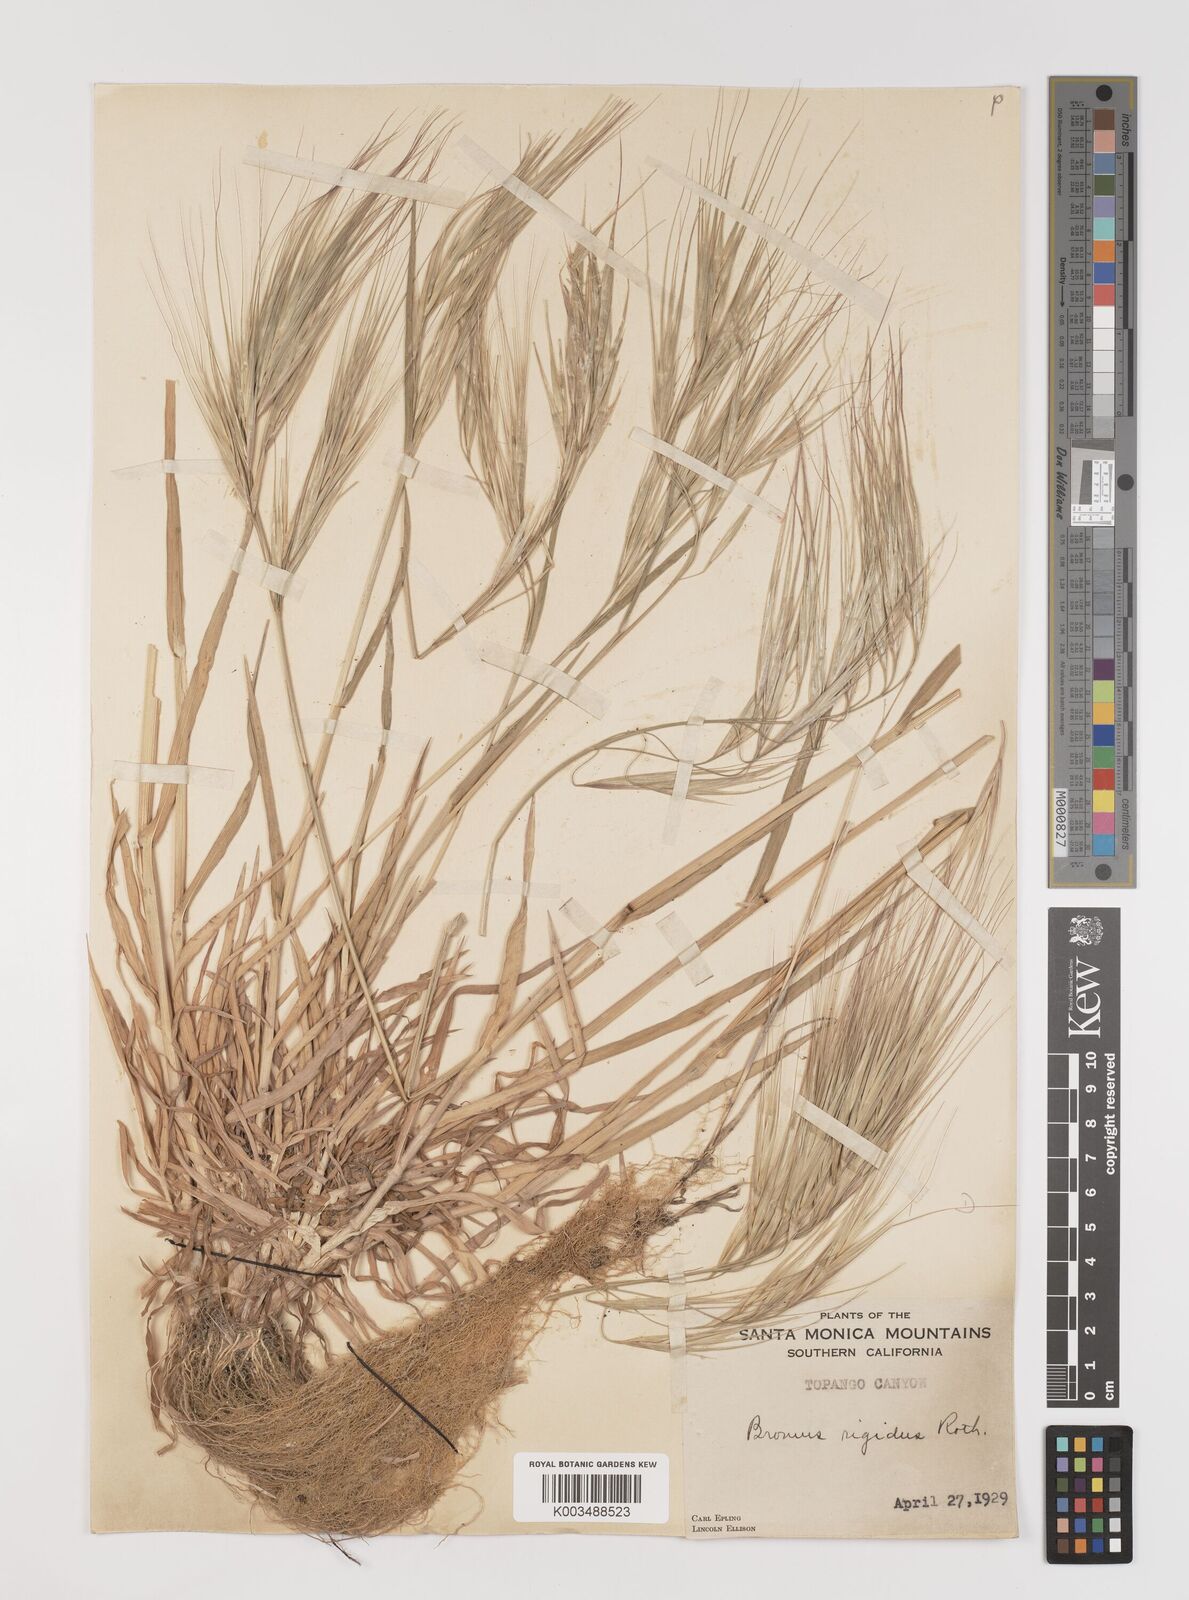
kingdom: Plantae
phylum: Tracheophyta
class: Liliopsida
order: Poales
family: Poaceae
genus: Bromus
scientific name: Bromus diandrus
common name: Ripgut brome
